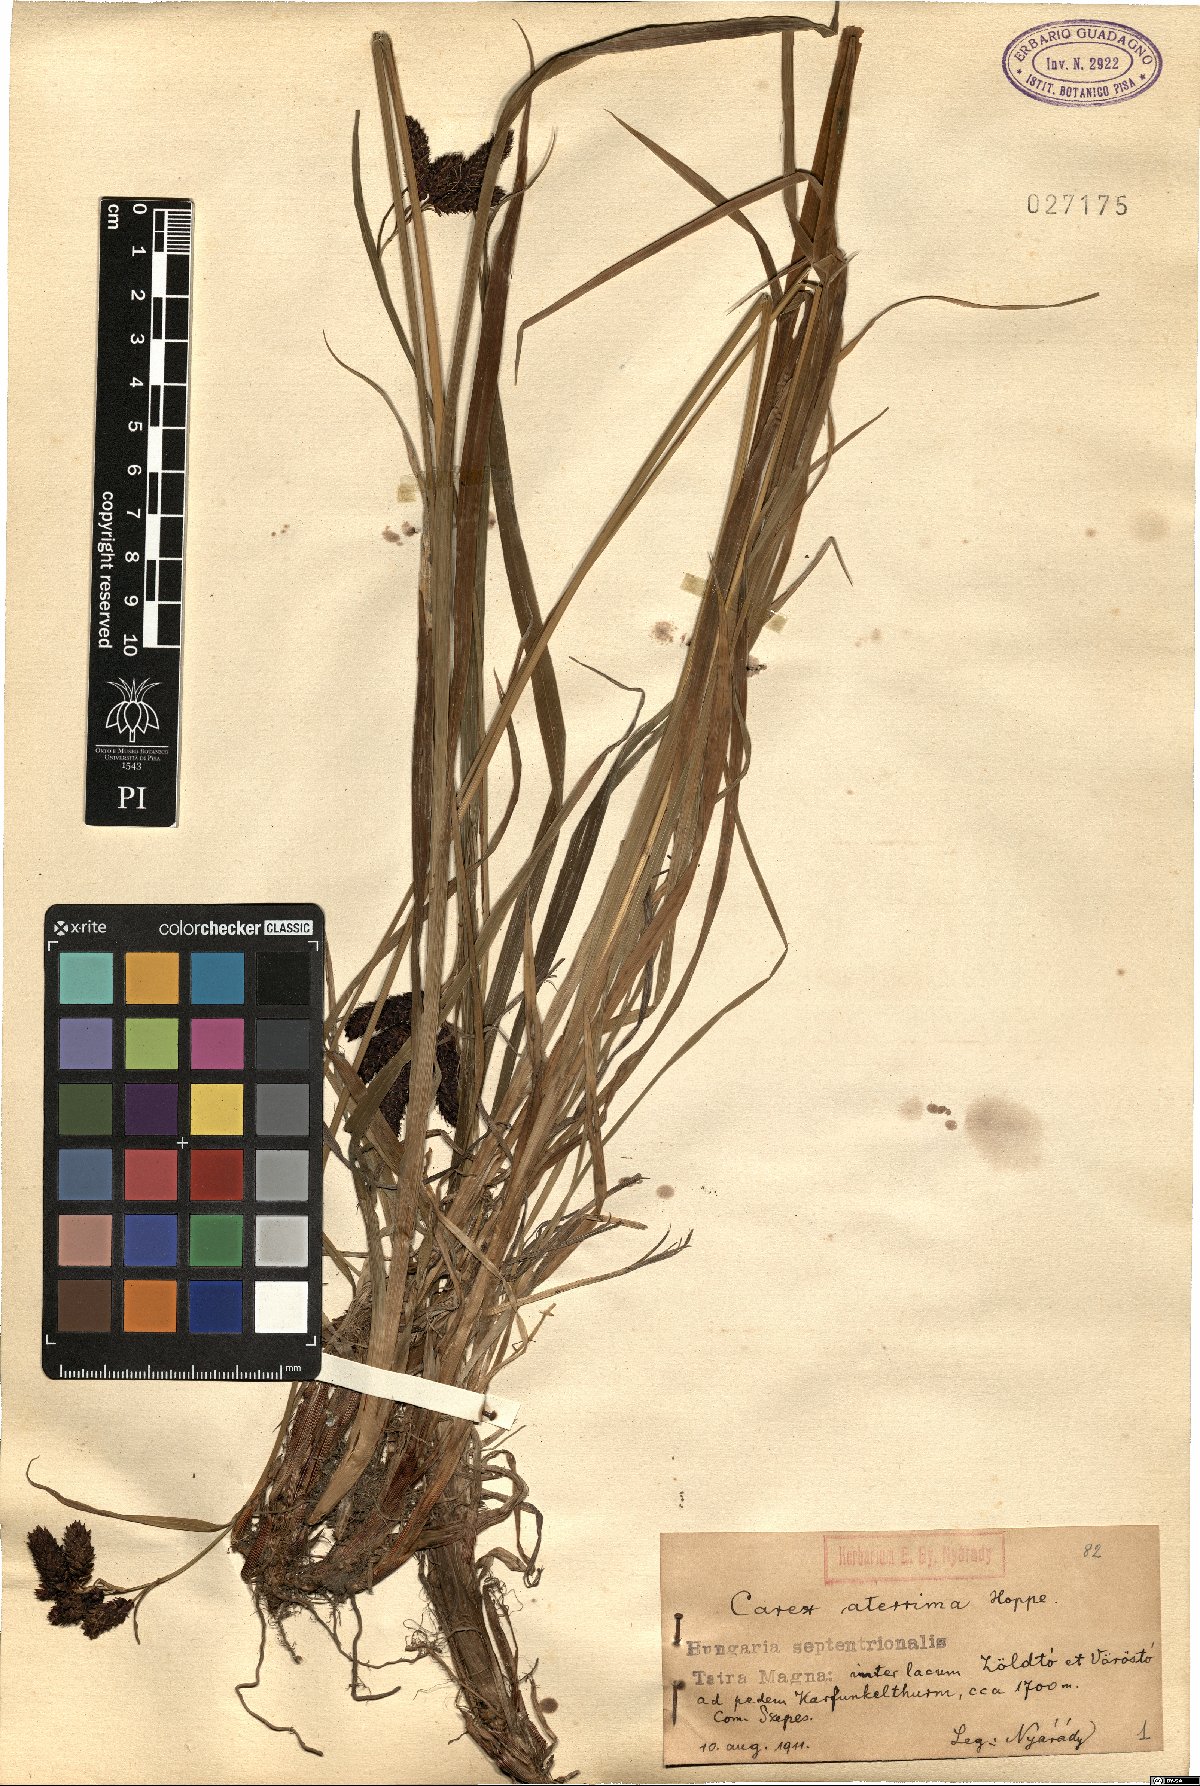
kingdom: Plantae
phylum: Tracheophyta
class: Liliopsida
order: Poales
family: Cyperaceae
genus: Carex
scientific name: Carex aterrima
